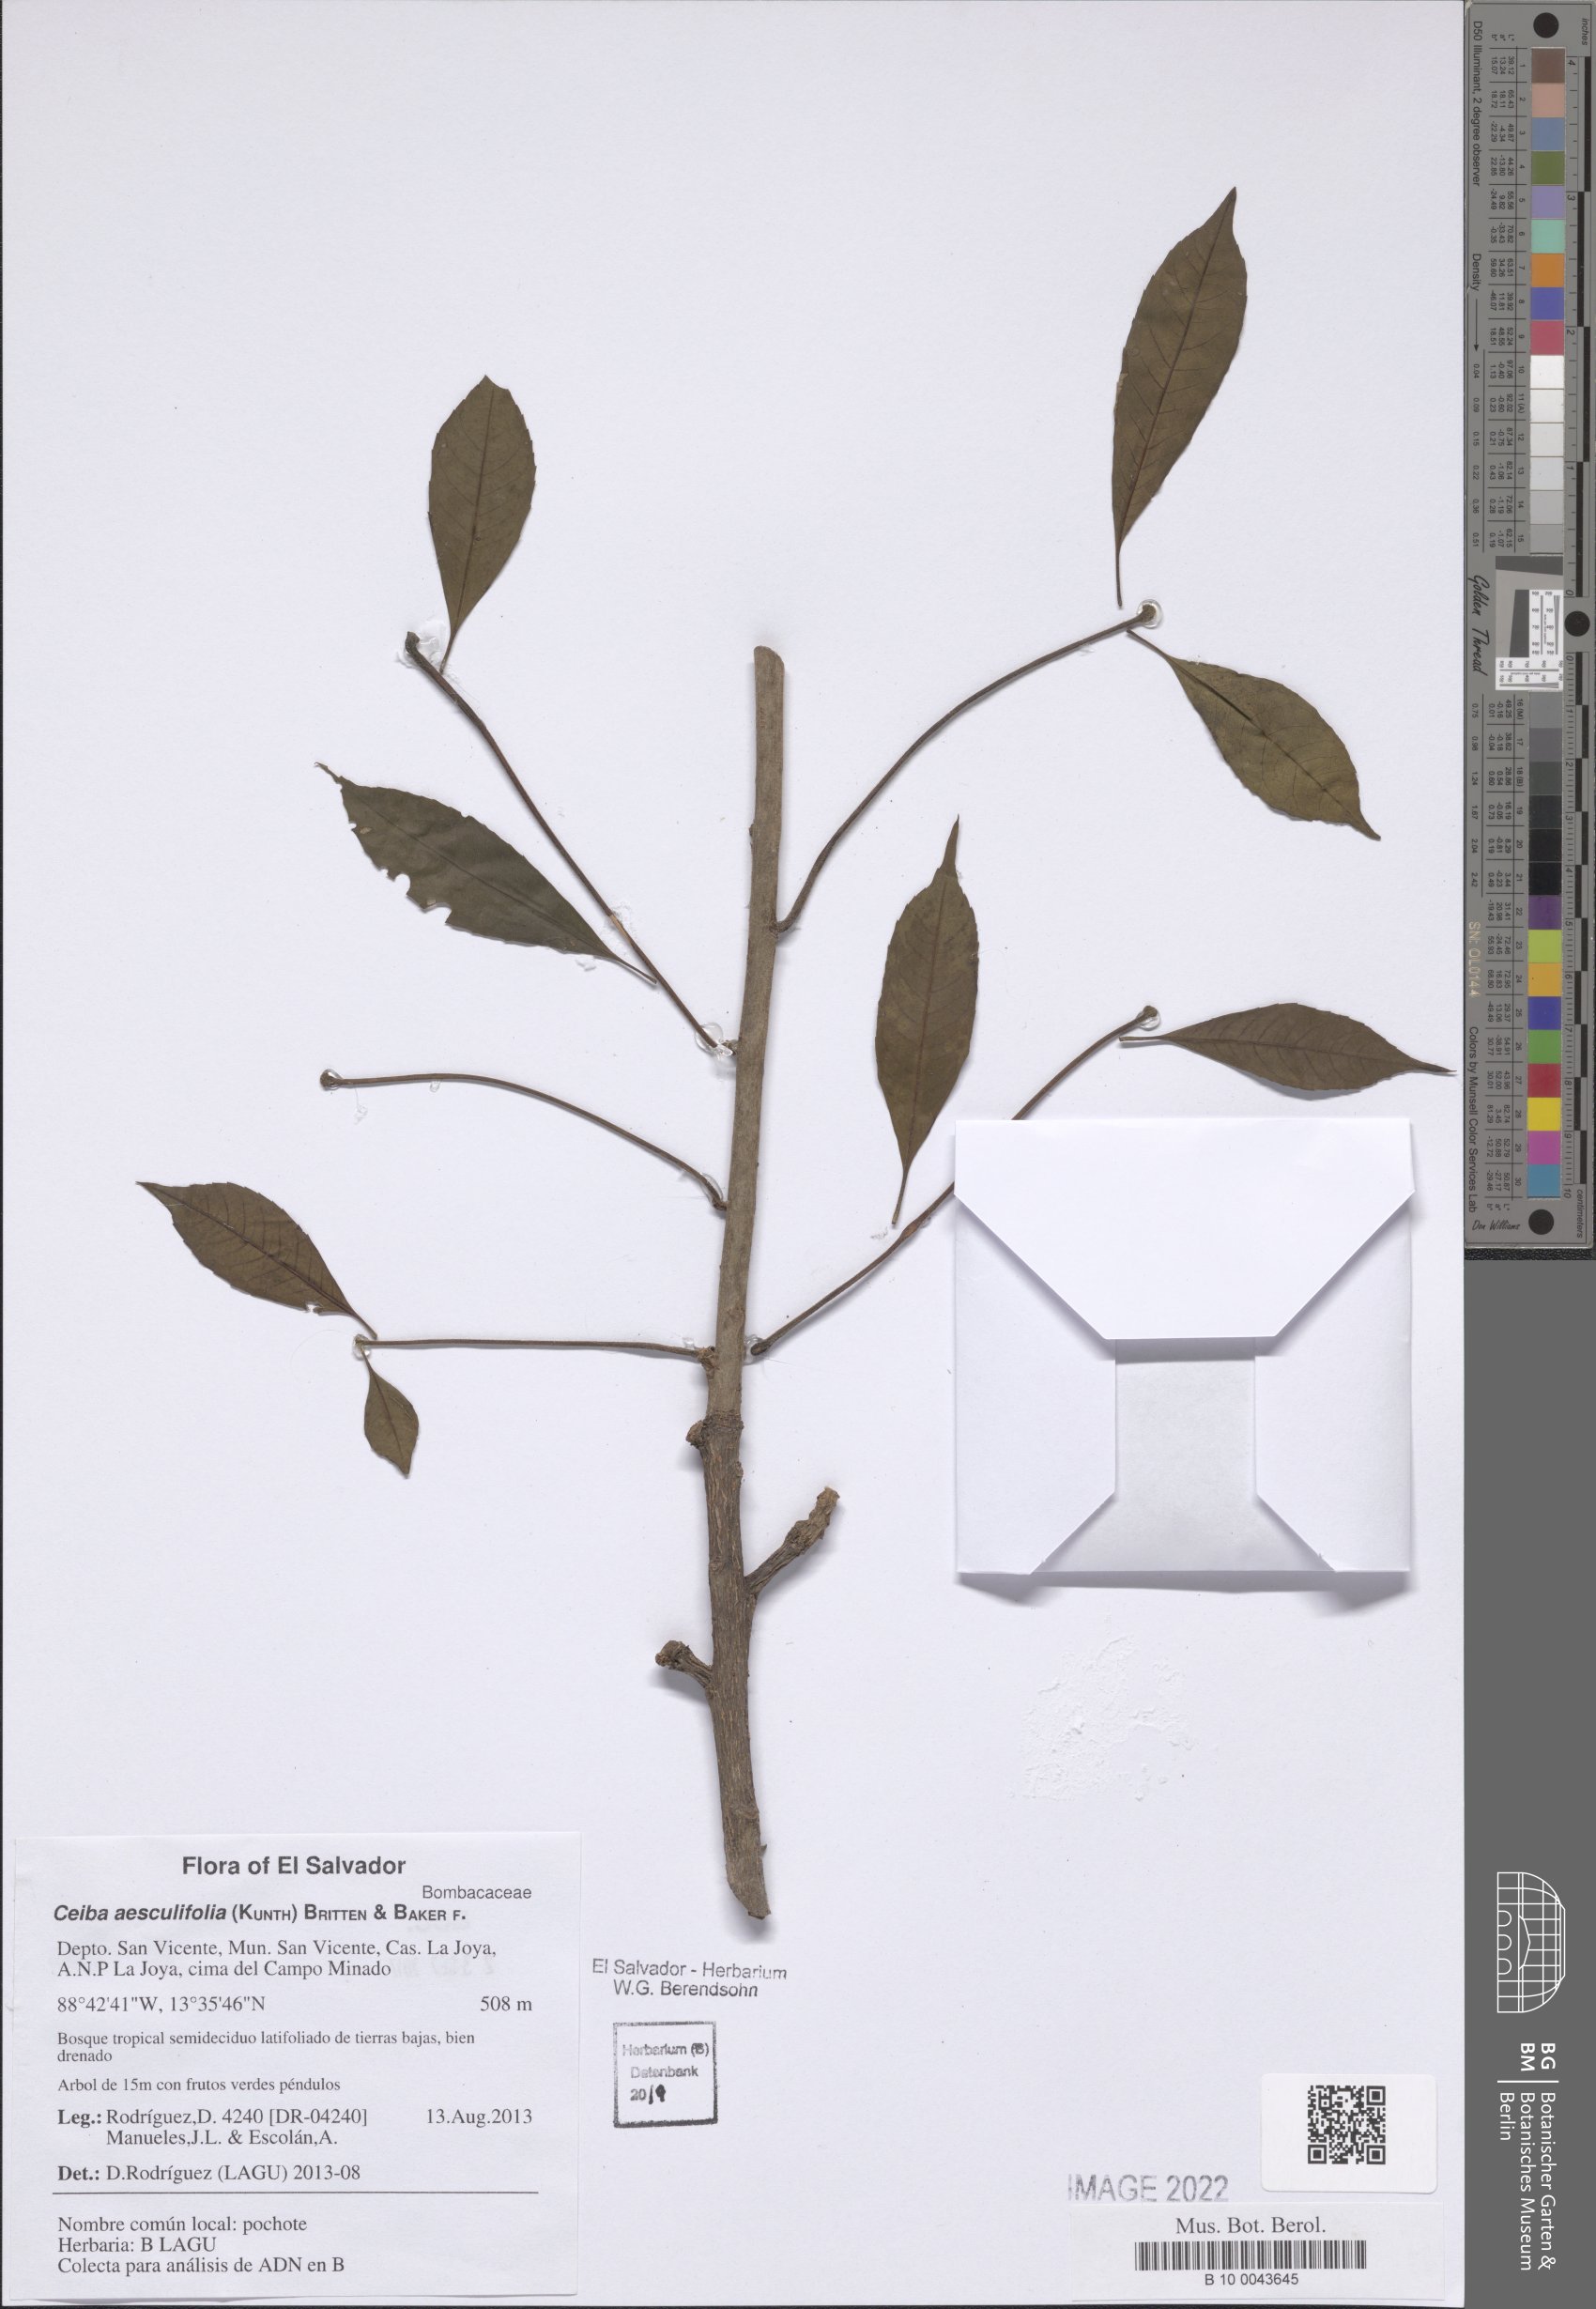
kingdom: Plantae
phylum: Tracheophyta
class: Magnoliopsida
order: Malvales
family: Malvaceae
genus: Ceiba
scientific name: Ceiba aesculifolia
